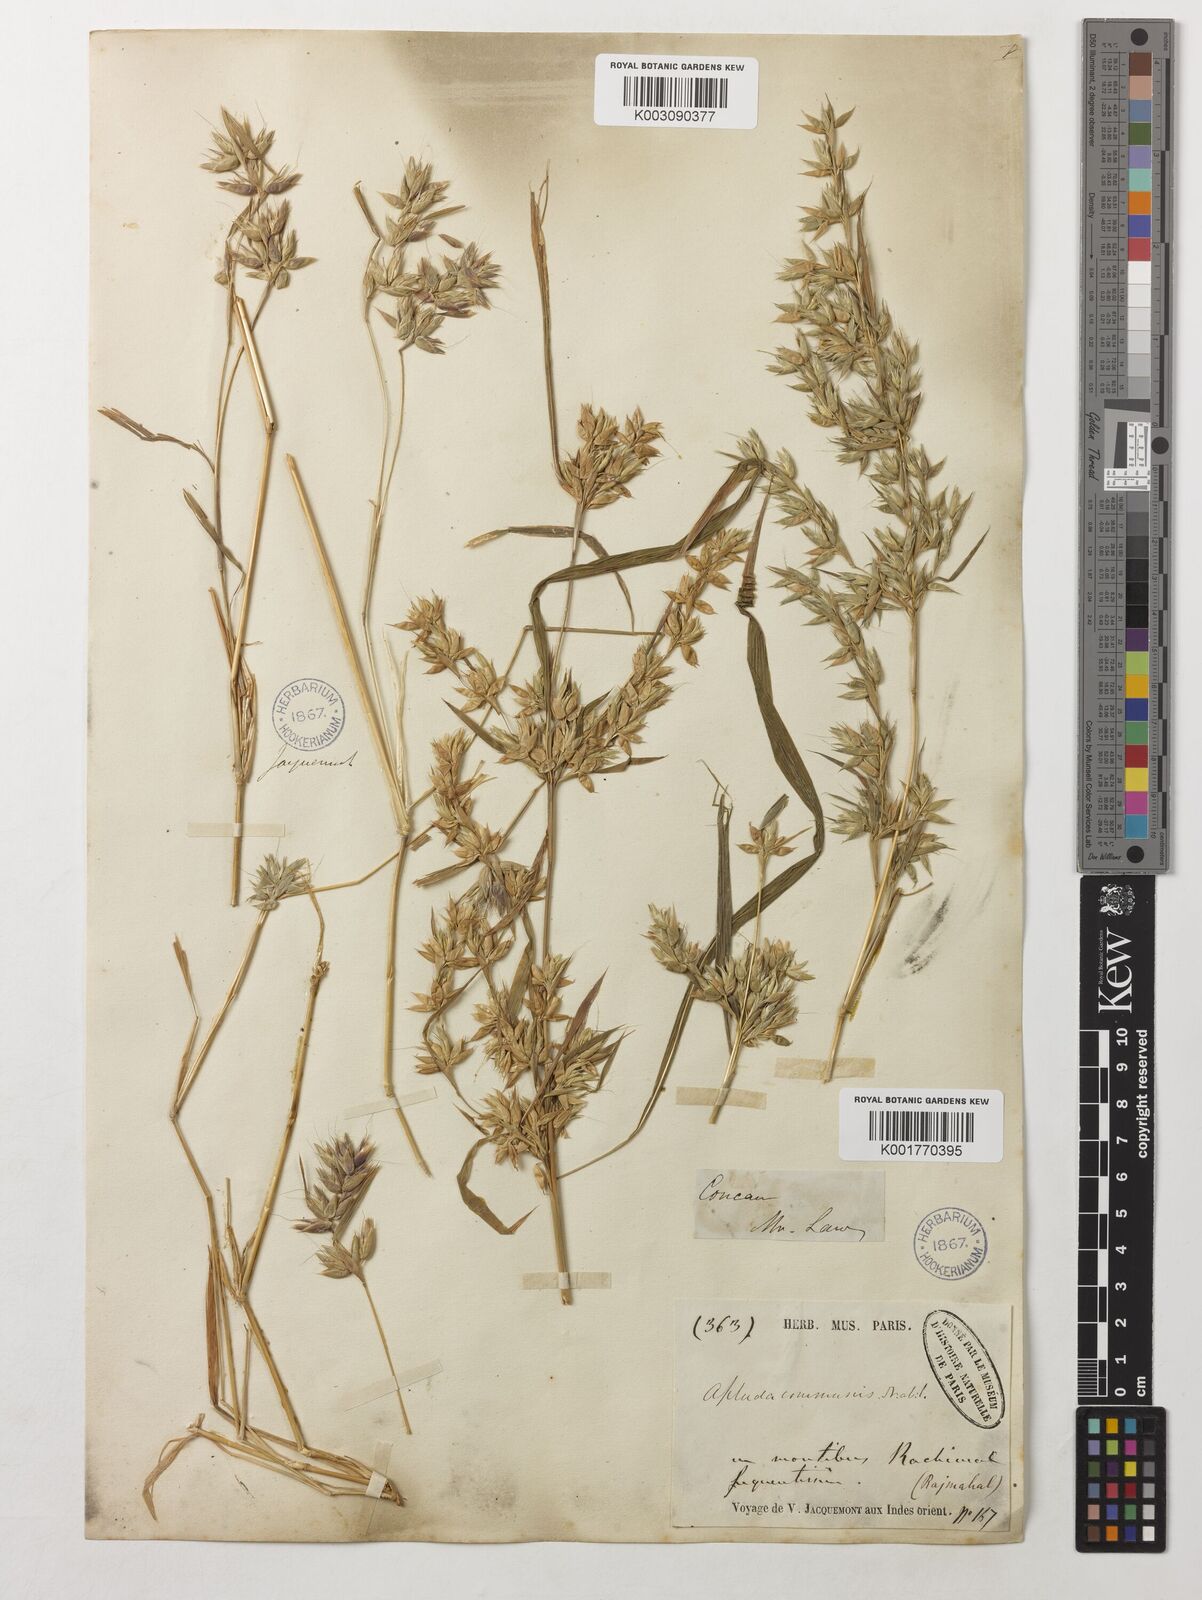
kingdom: Plantae
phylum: Tracheophyta
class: Liliopsida
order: Poales
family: Poaceae
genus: Apluda
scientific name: Apluda mutica
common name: Mauritian grass
